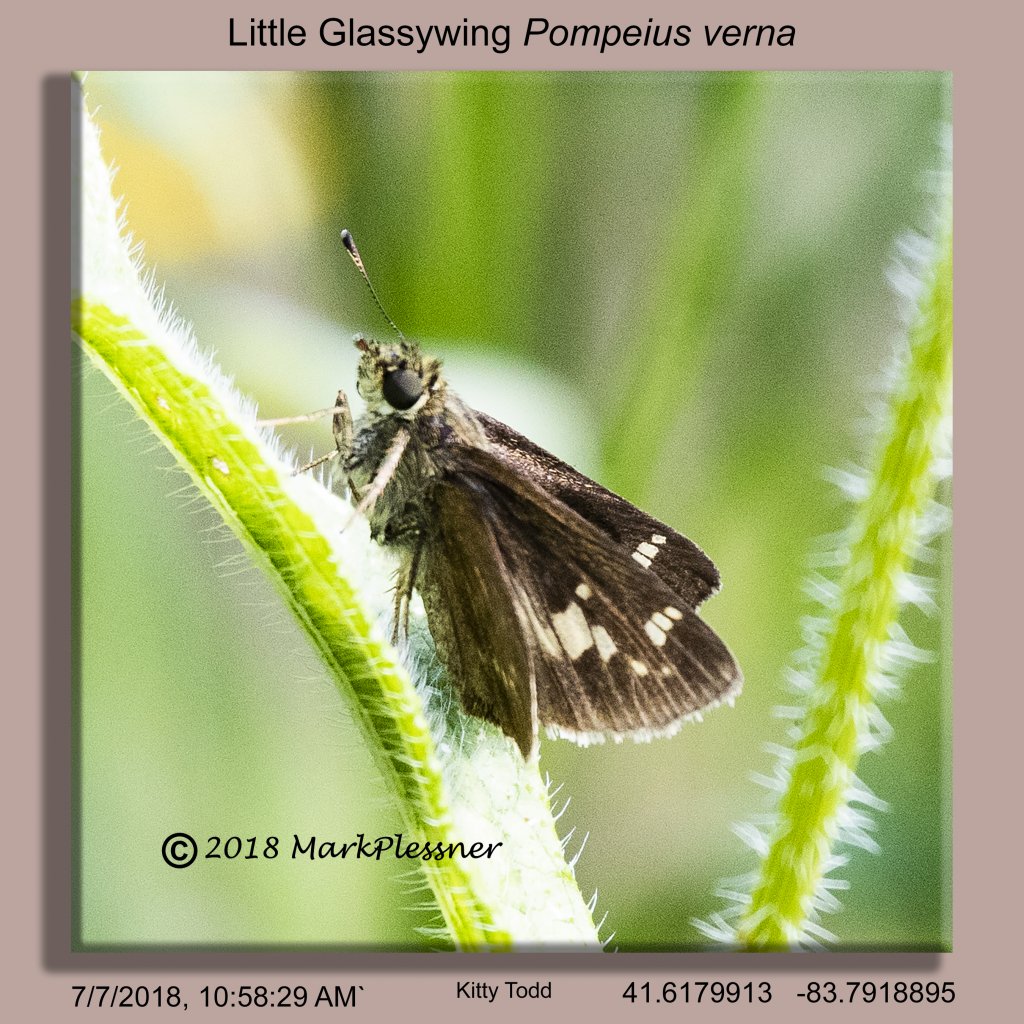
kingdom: Animalia
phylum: Arthropoda
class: Insecta
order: Lepidoptera
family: Hesperiidae
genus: Vernia
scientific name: Vernia verna
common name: Little Glassywing
